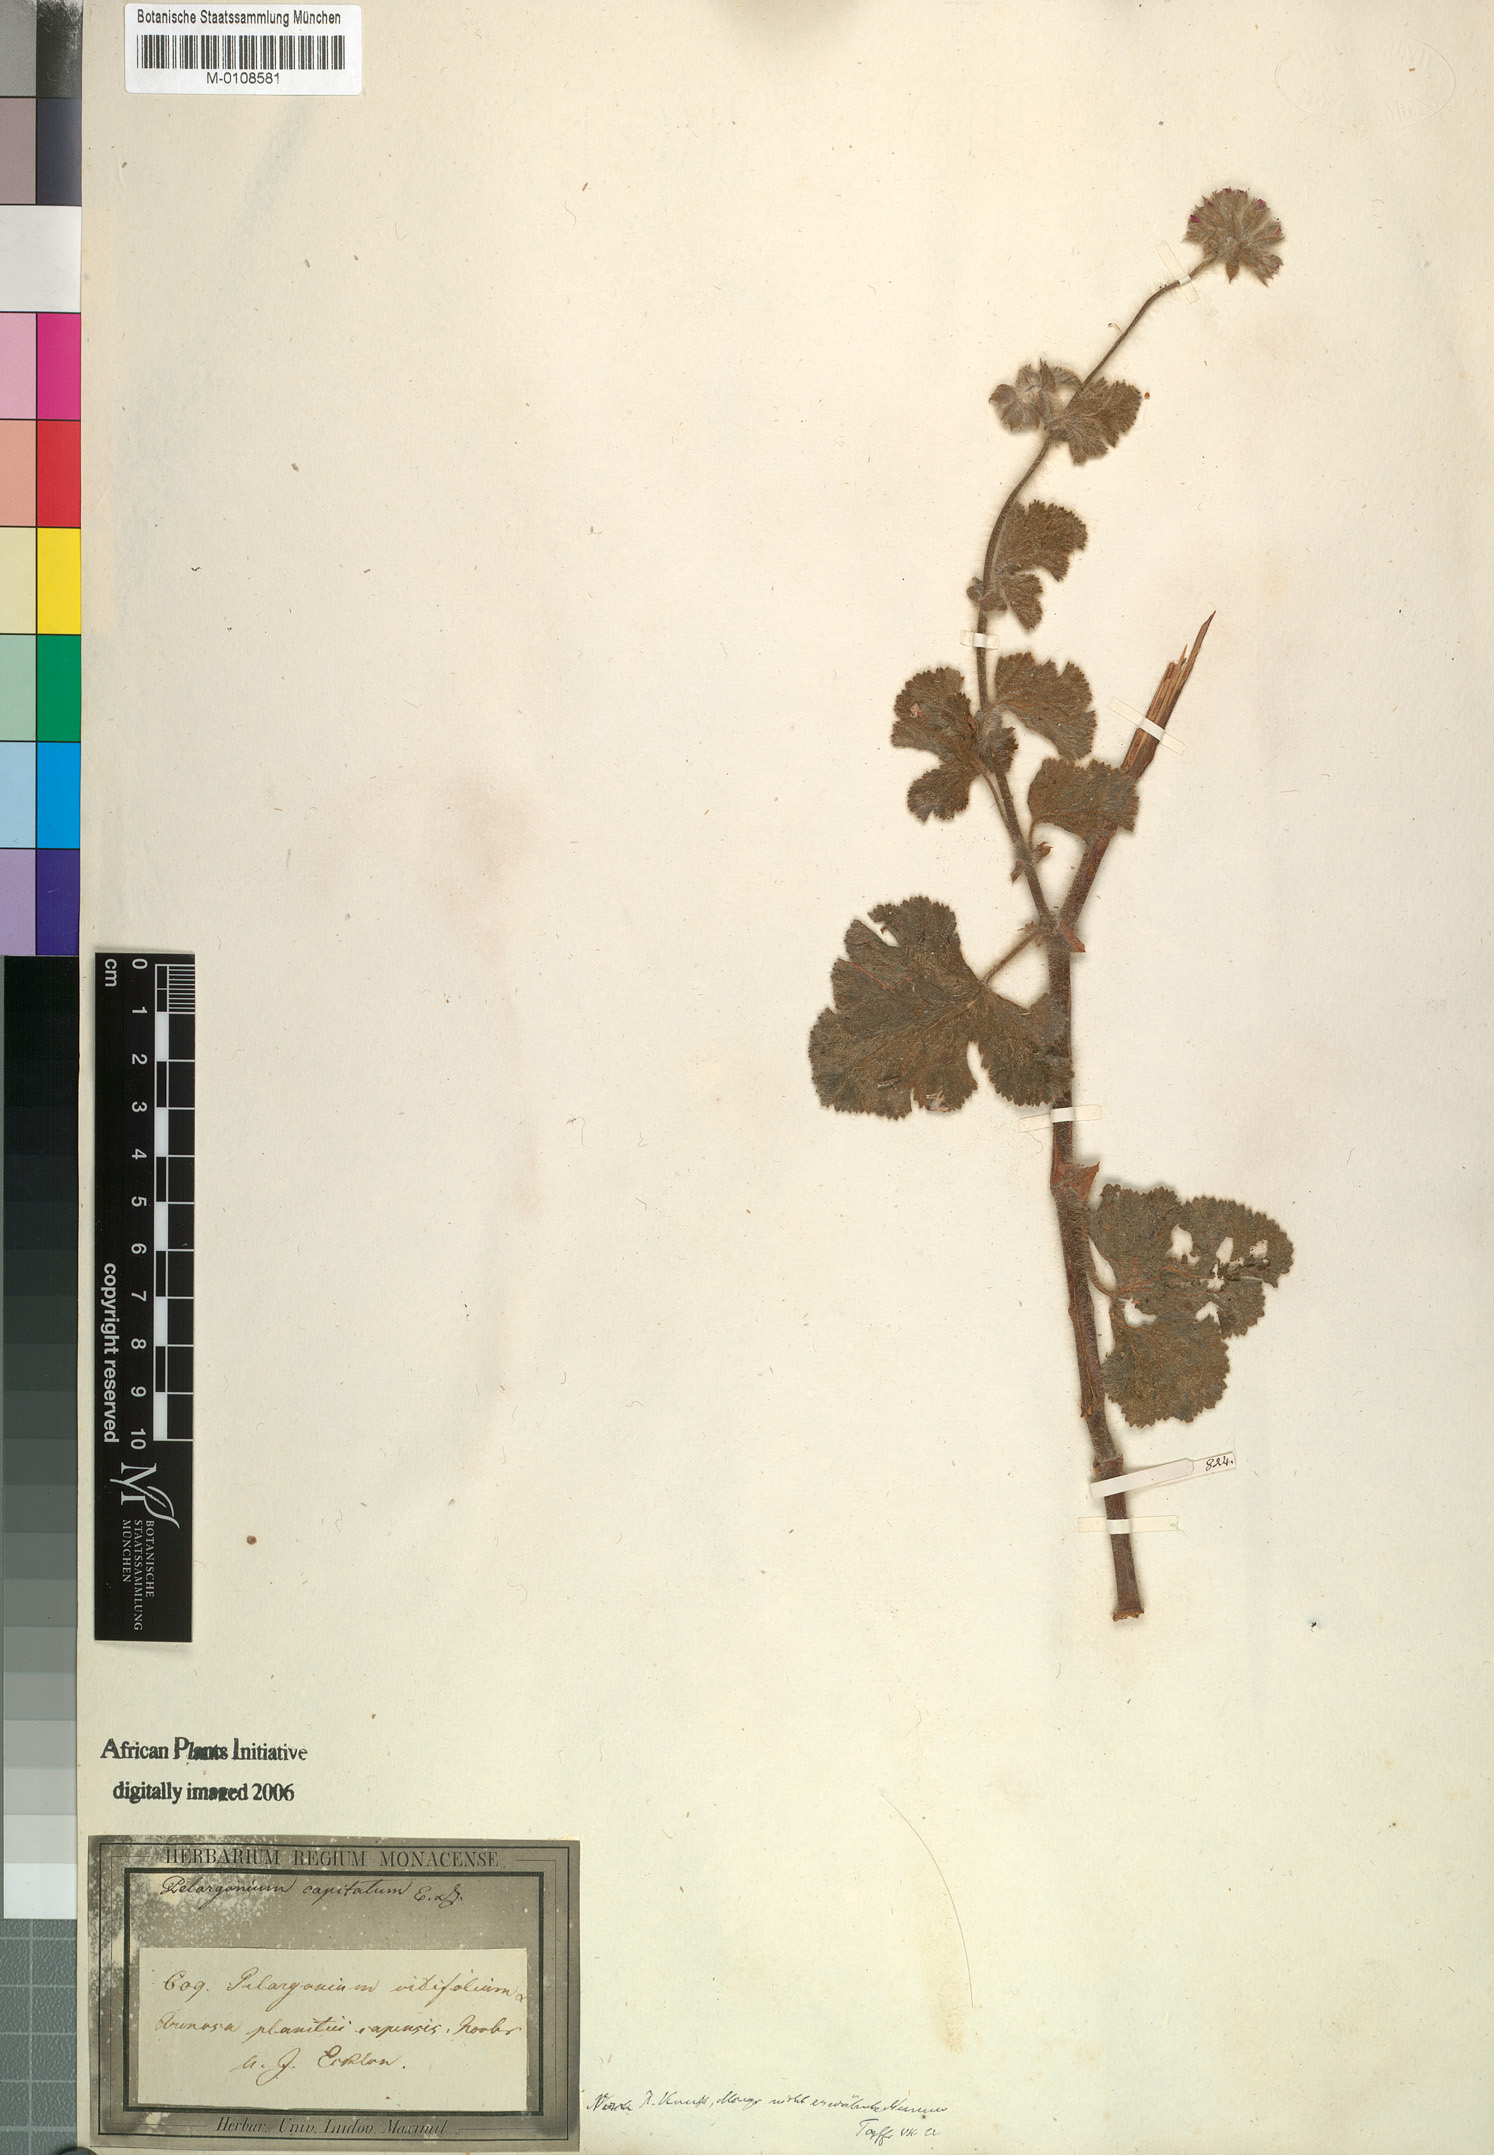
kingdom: Plantae
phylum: Tracheophyta
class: Magnoliopsida
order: Geraniales
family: Geraniaceae
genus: Pelargonium
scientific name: Pelargonium capitatum
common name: Rose scented geranium
